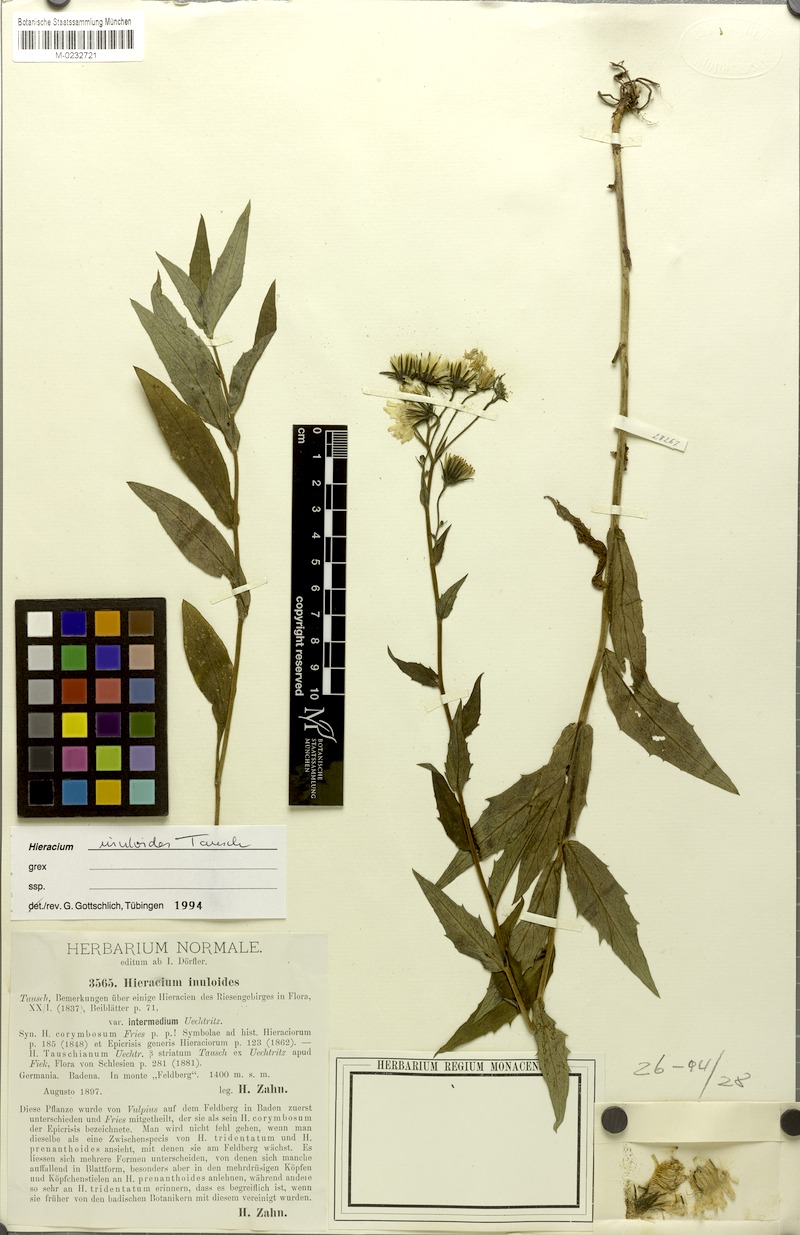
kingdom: Plantae
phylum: Tracheophyta
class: Magnoliopsida
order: Asterales
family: Asteraceae
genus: Hieracium
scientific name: Hieracium inuloides
